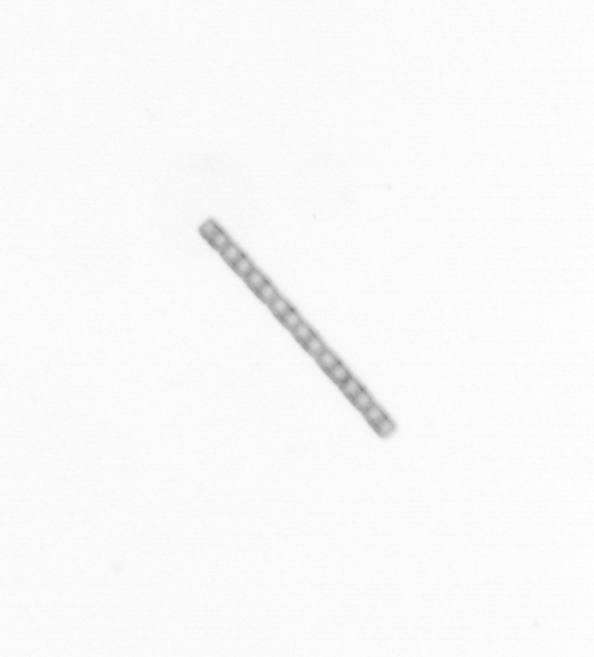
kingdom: Chromista
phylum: Ochrophyta
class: Bacillariophyceae
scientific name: Bacillariophyceae
